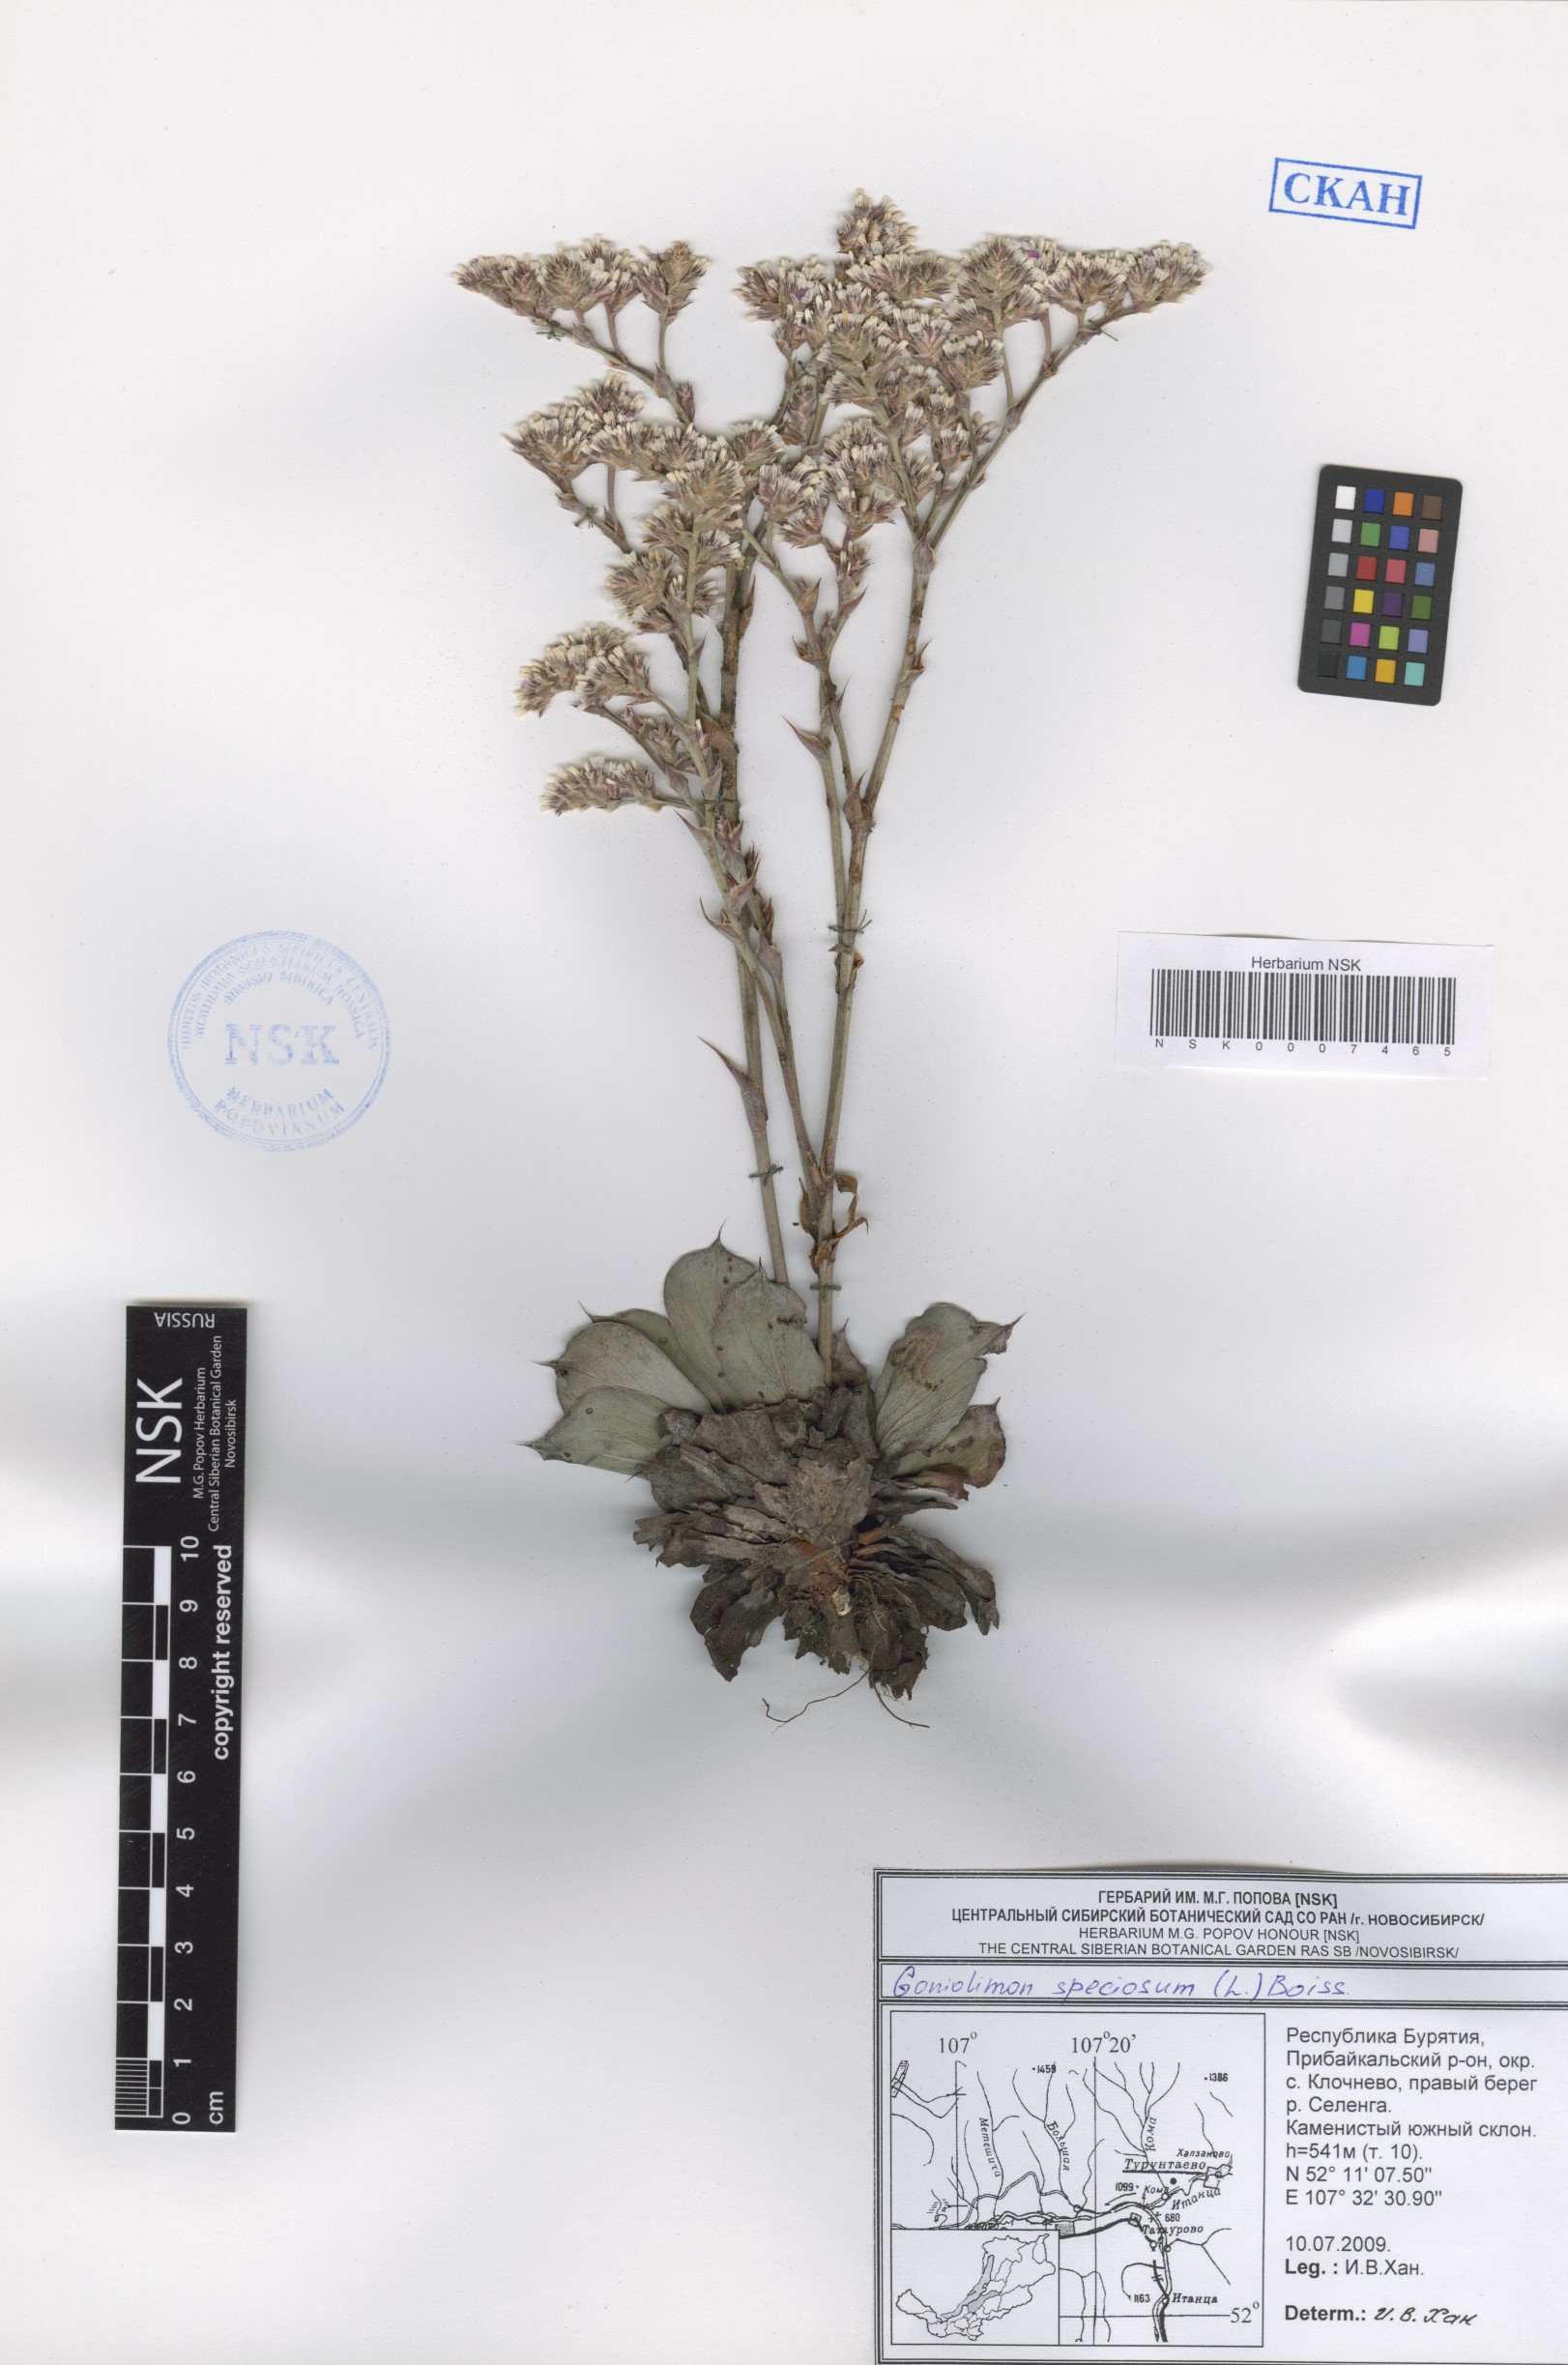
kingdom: Plantae
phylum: Tracheophyta
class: Magnoliopsida
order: Caryophyllales
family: Plumbaginaceae
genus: Goniolimon
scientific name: Goniolimon speciosum
